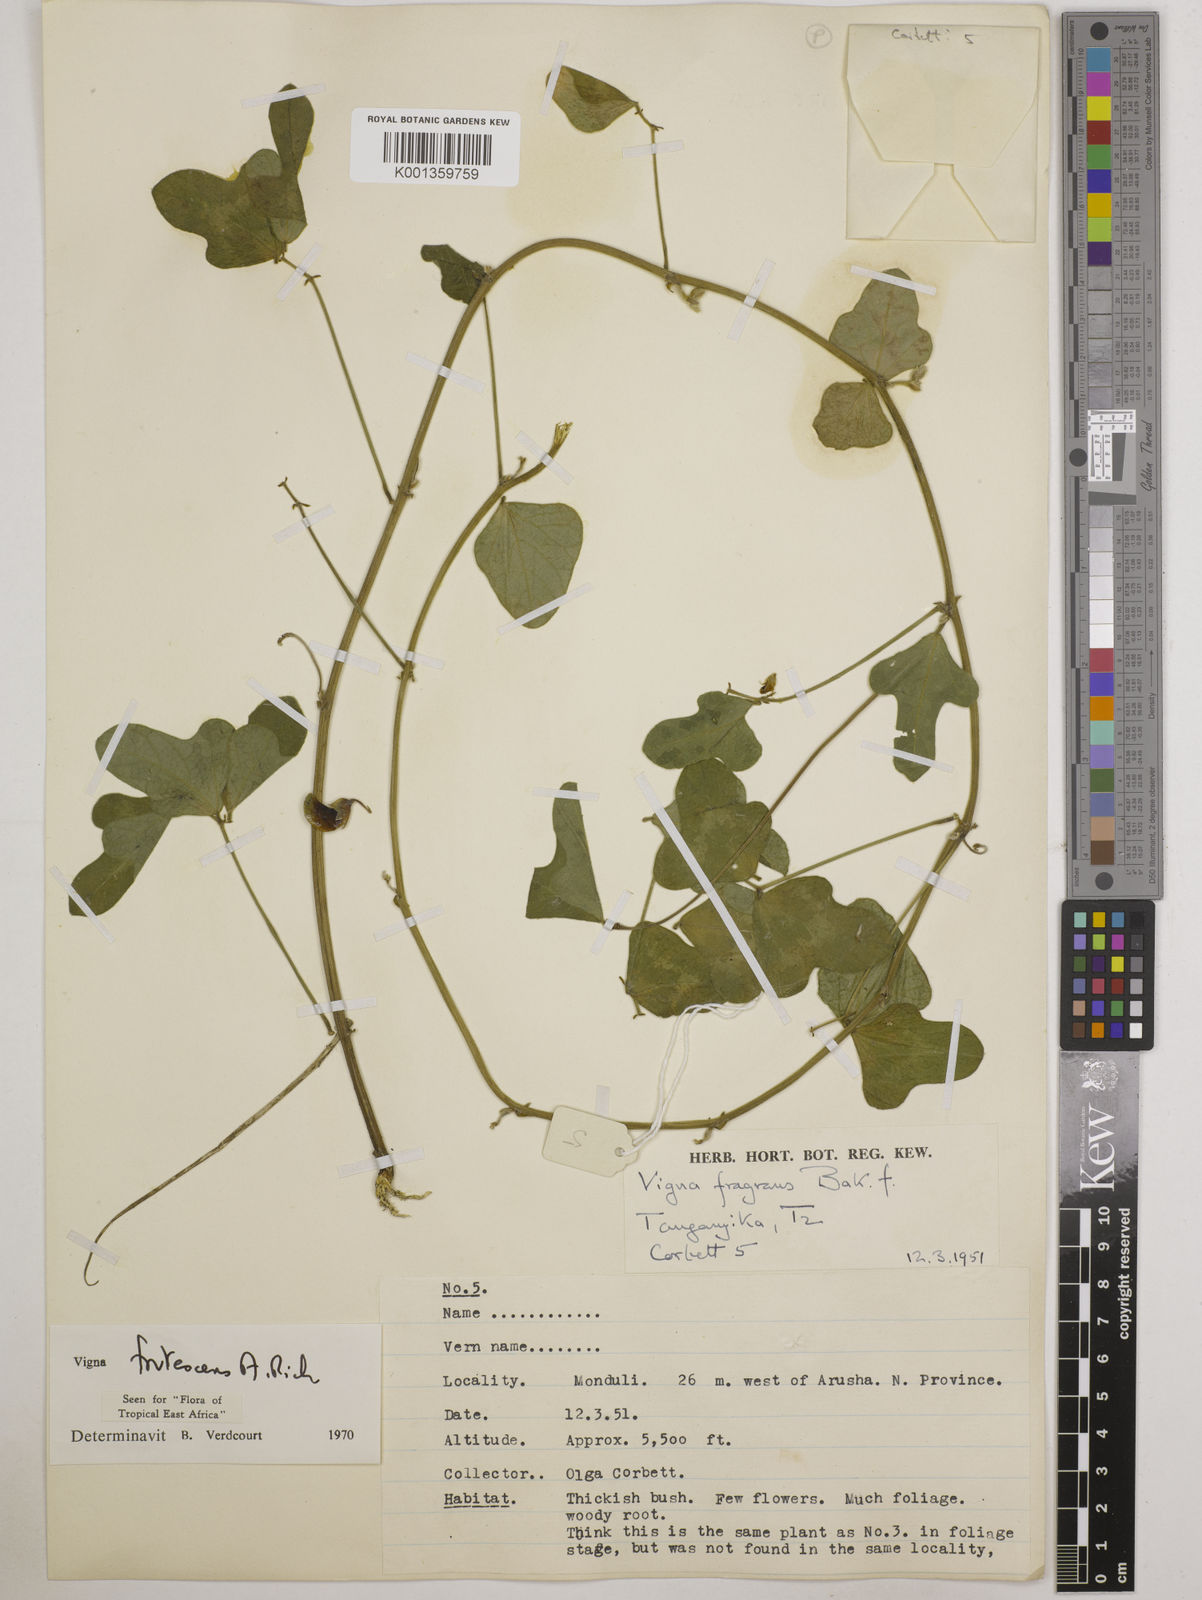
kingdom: Plantae
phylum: Tracheophyta
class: Magnoliopsida
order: Fabales
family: Fabaceae
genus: Vigna
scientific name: Vigna frutescens
